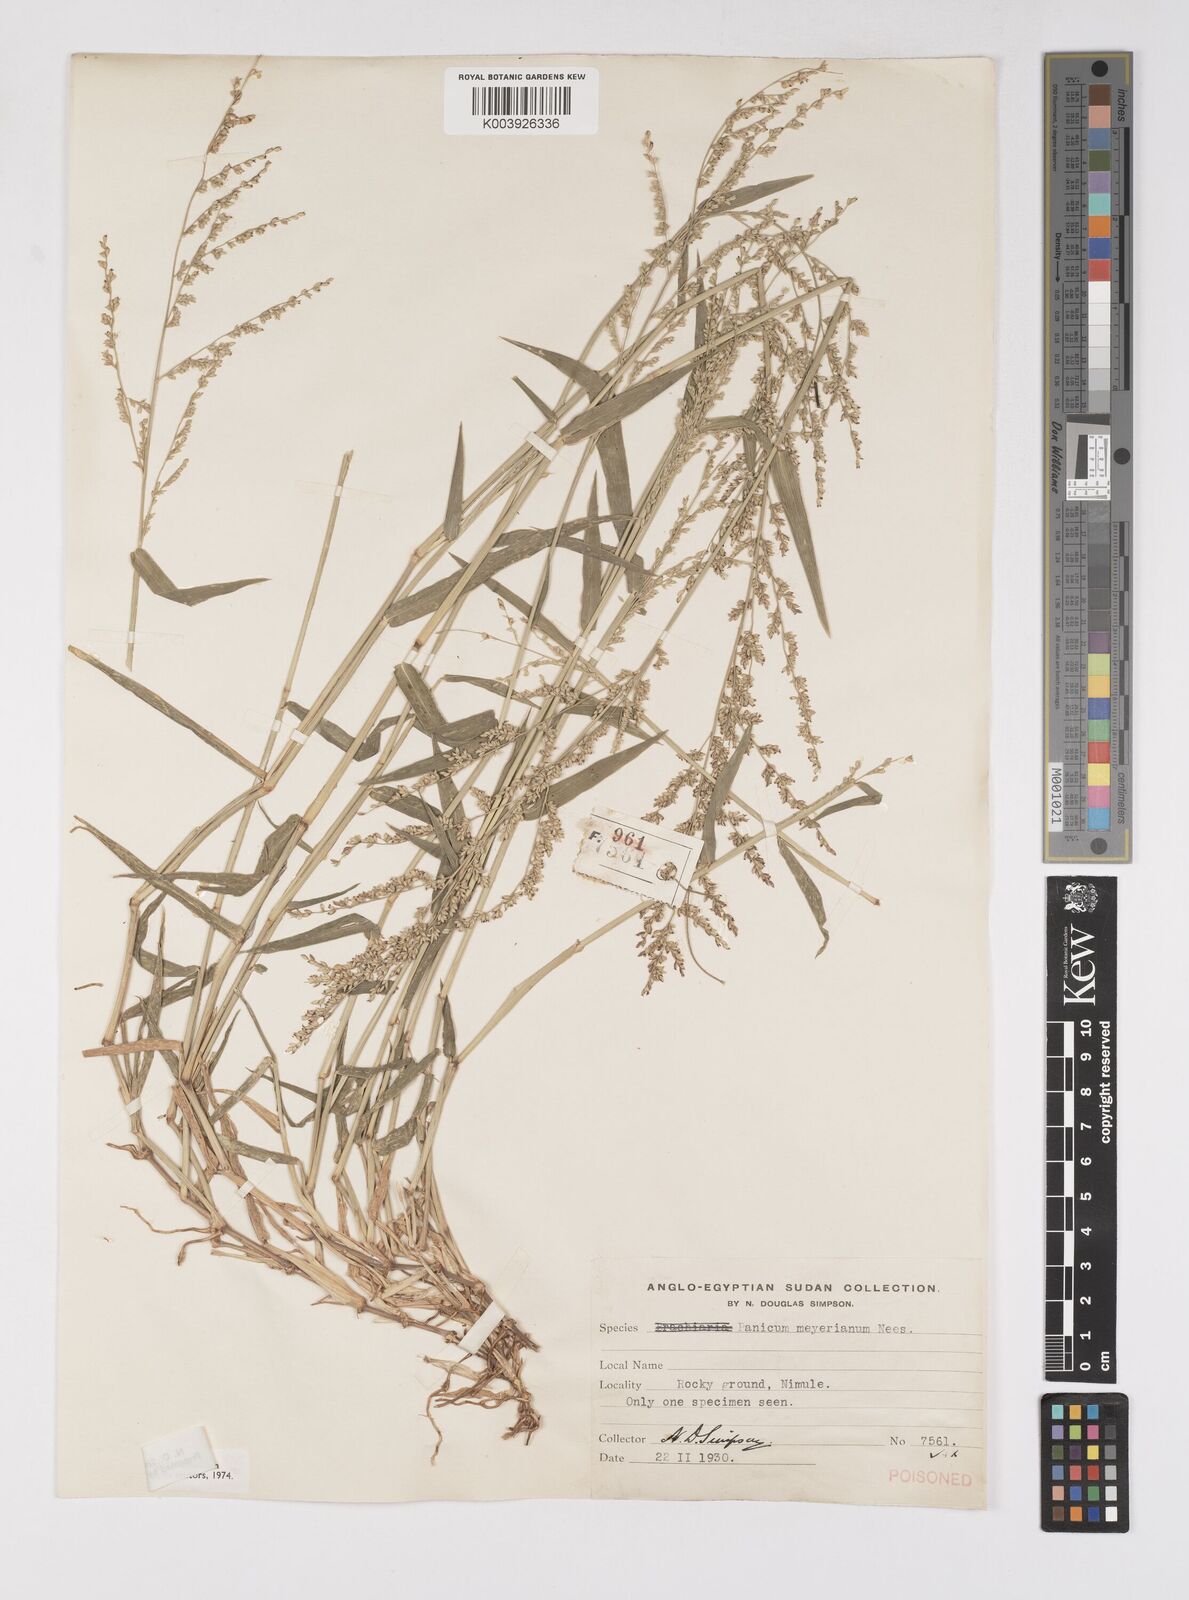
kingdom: Plantae
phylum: Tracheophyta
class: Liliopsida
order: Poales
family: Poaceae
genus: Eriochloa
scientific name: Eriochloa meyeriana
